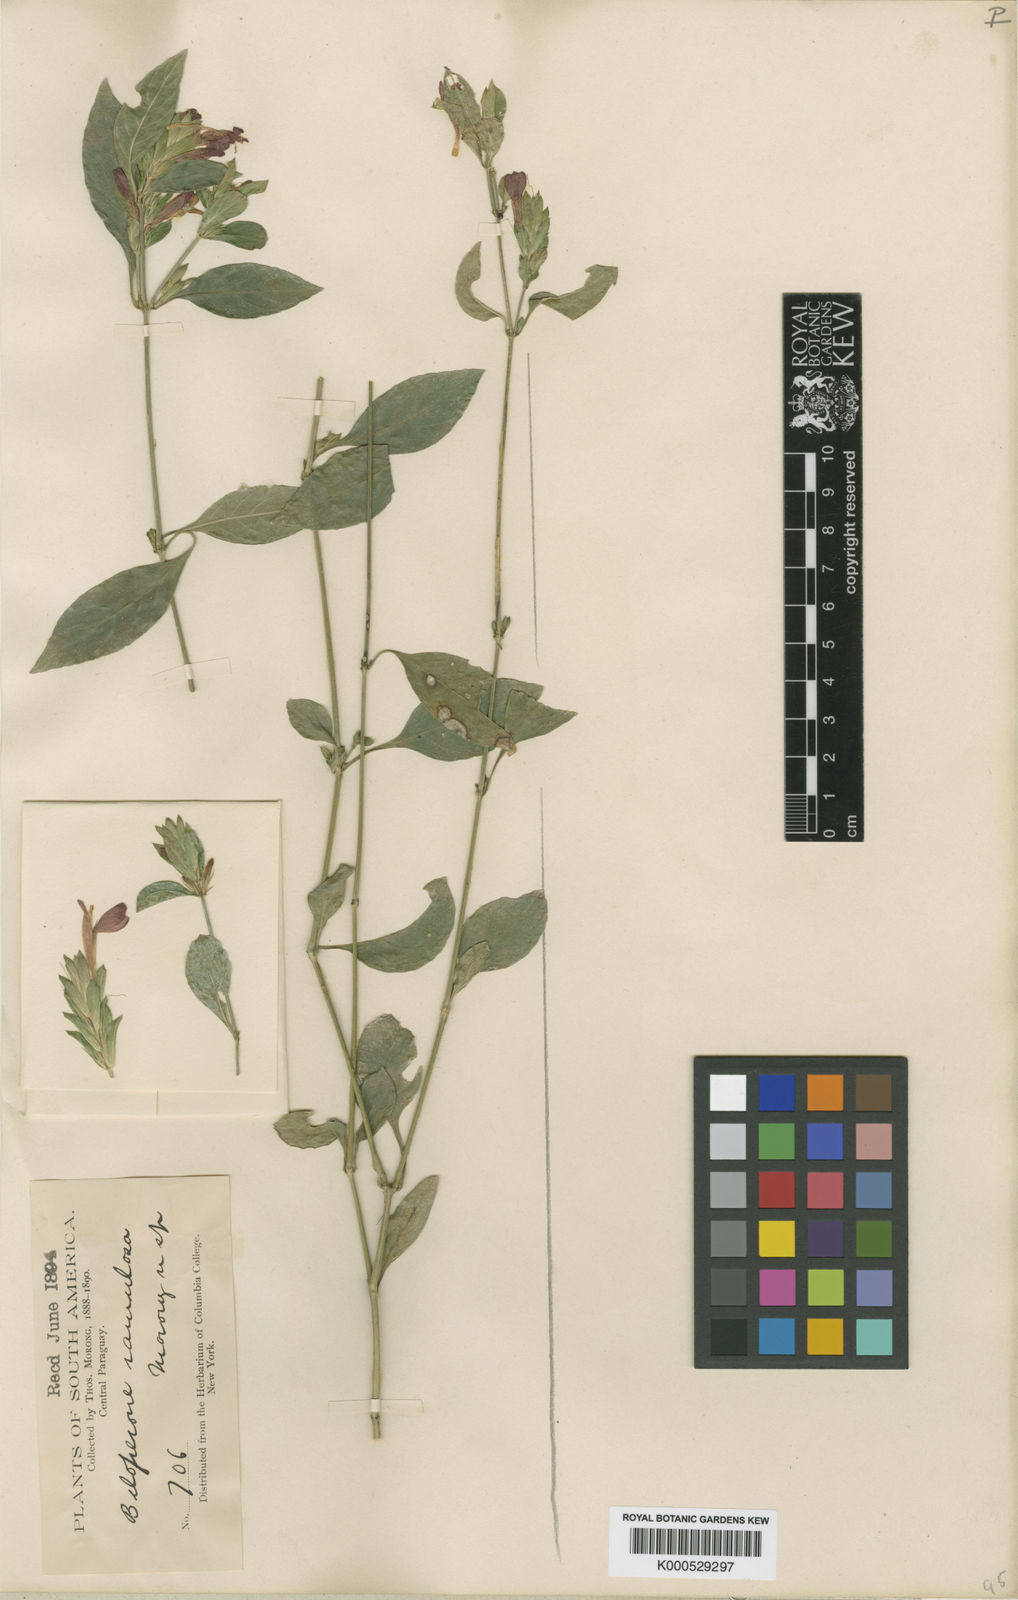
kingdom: Plantae
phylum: Tracheophyta
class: Magnoliopsida
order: Lamiales
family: Acanthaceae
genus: Justicia
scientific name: Justicia
